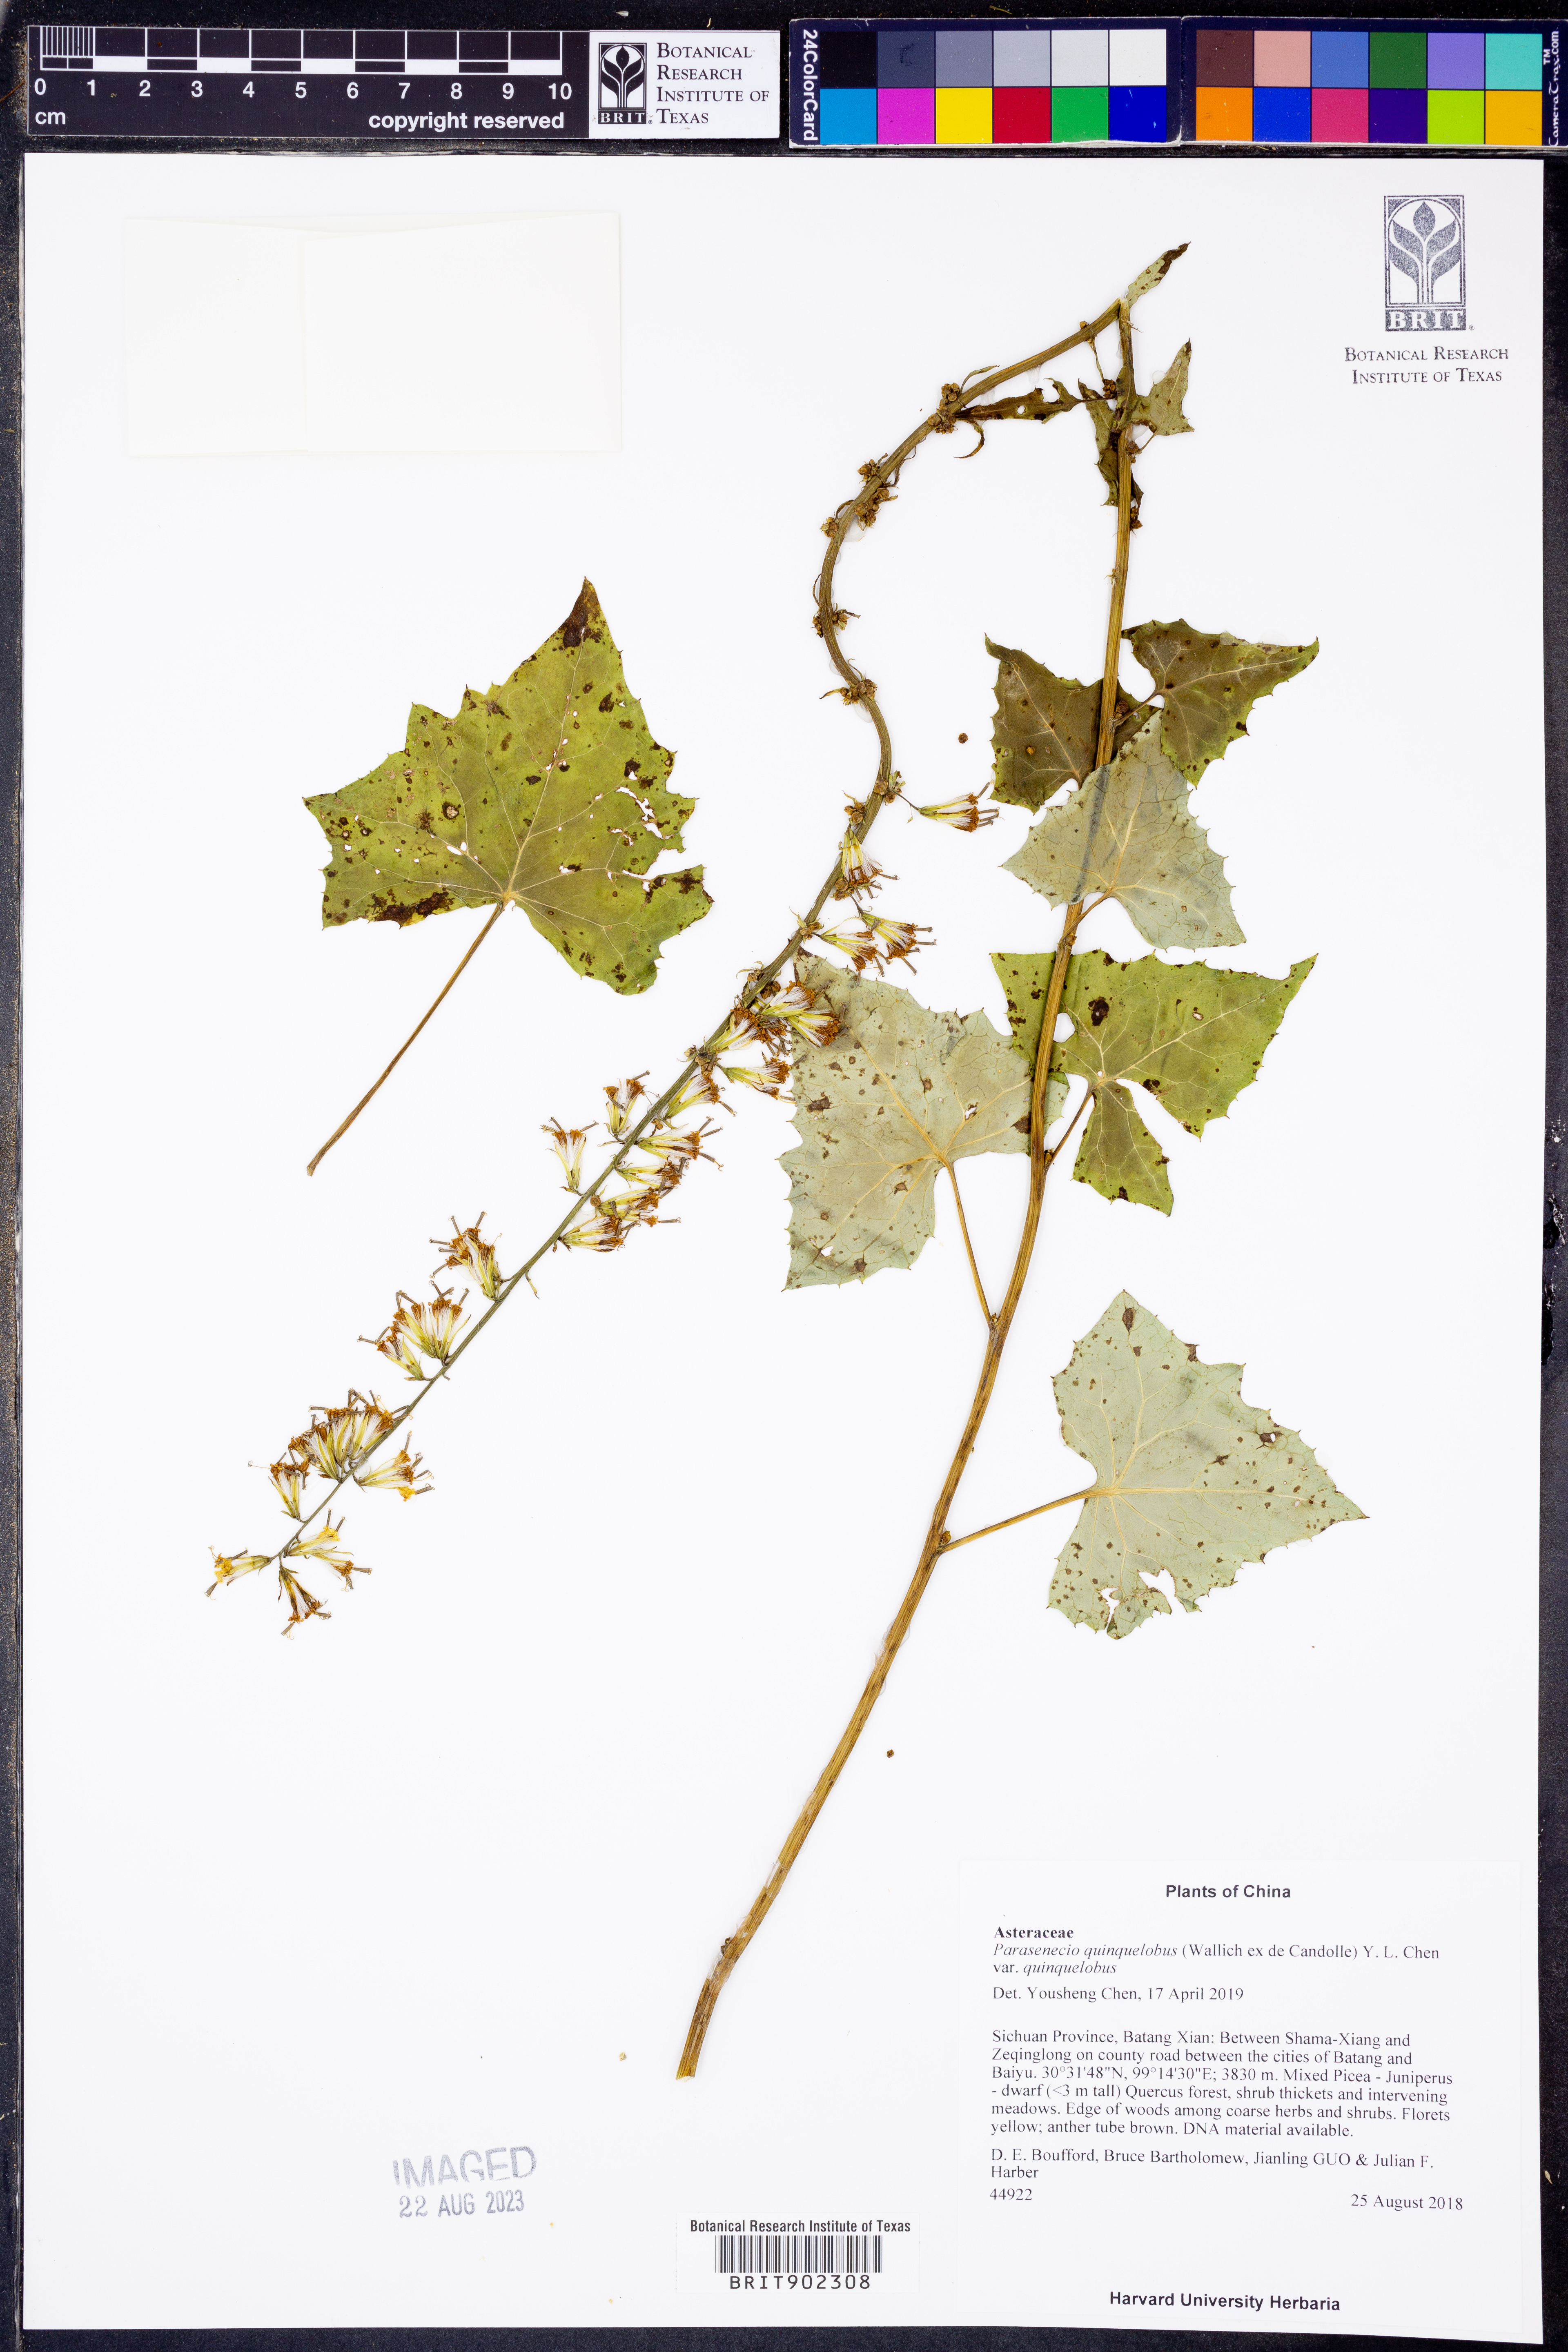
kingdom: Plantae
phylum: Tracheophyta
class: Magnoliopsida
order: Asterales
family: Asteraceae
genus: Parasenecio
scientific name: Parasenecio quinquelobus
